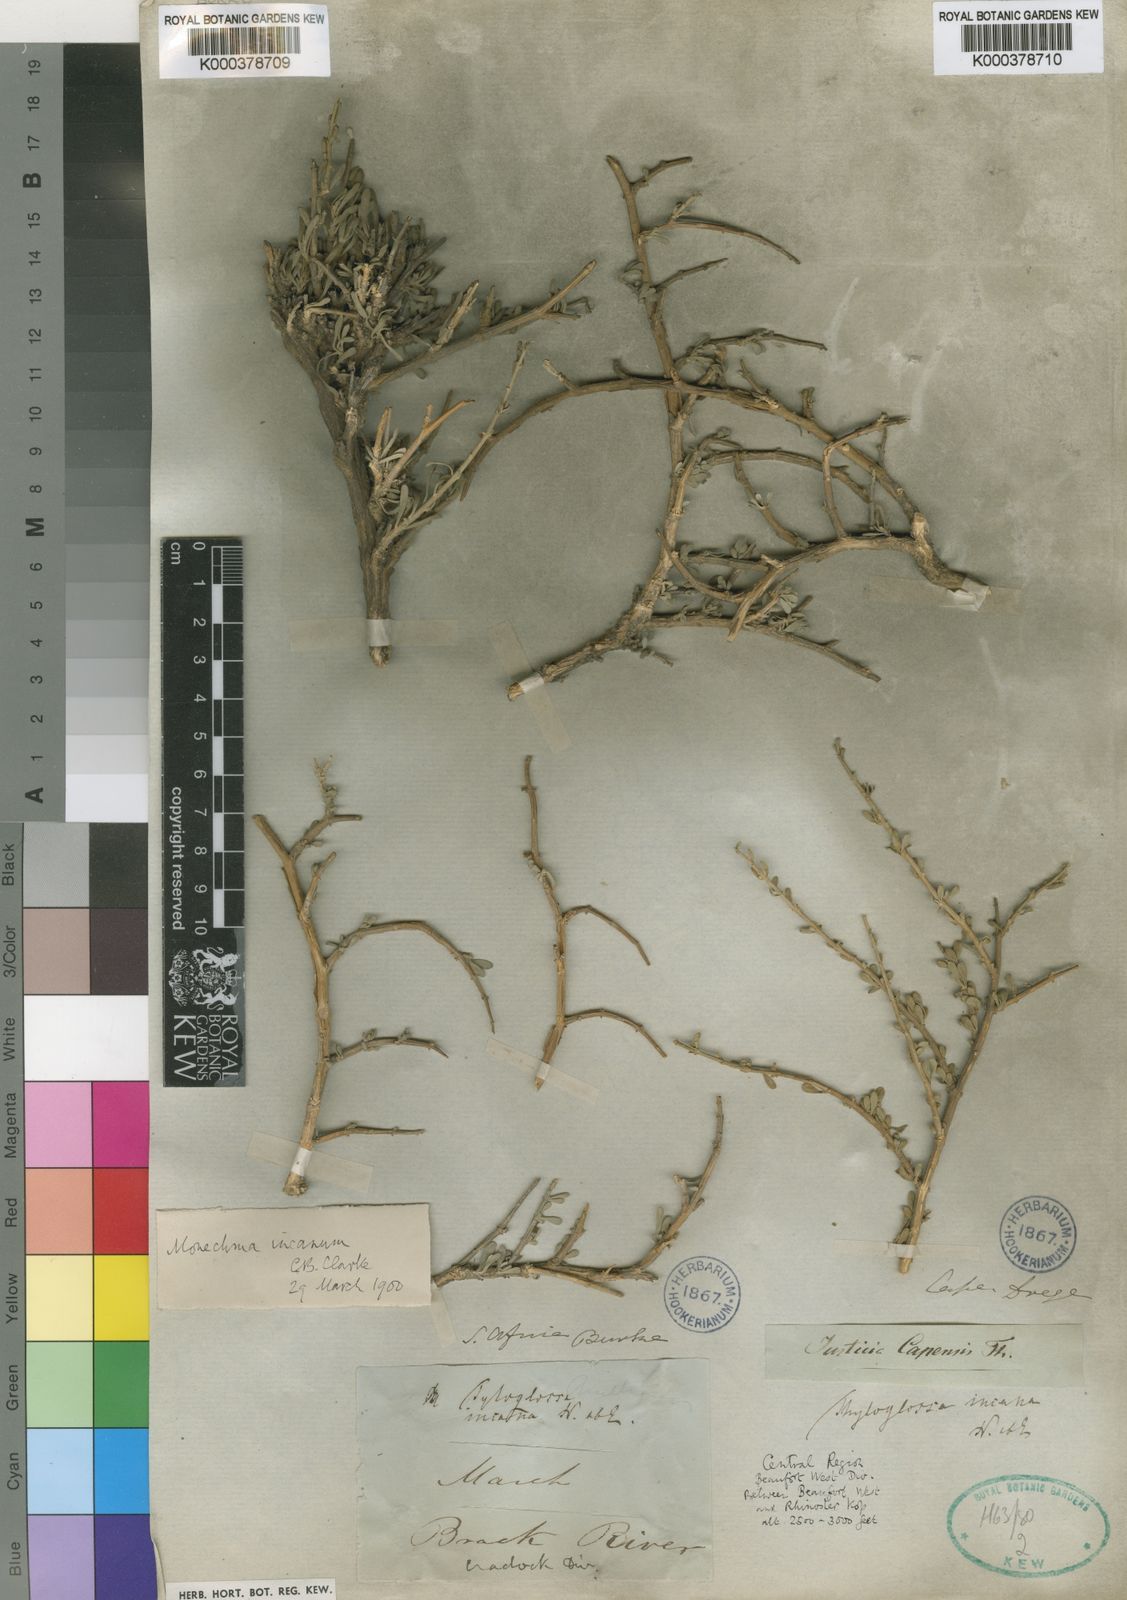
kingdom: Plantae
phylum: Tracheophyta
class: Magnoliopsida
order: Lamiales
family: Acanthaceae
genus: Monechma
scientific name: Monechma incanum
